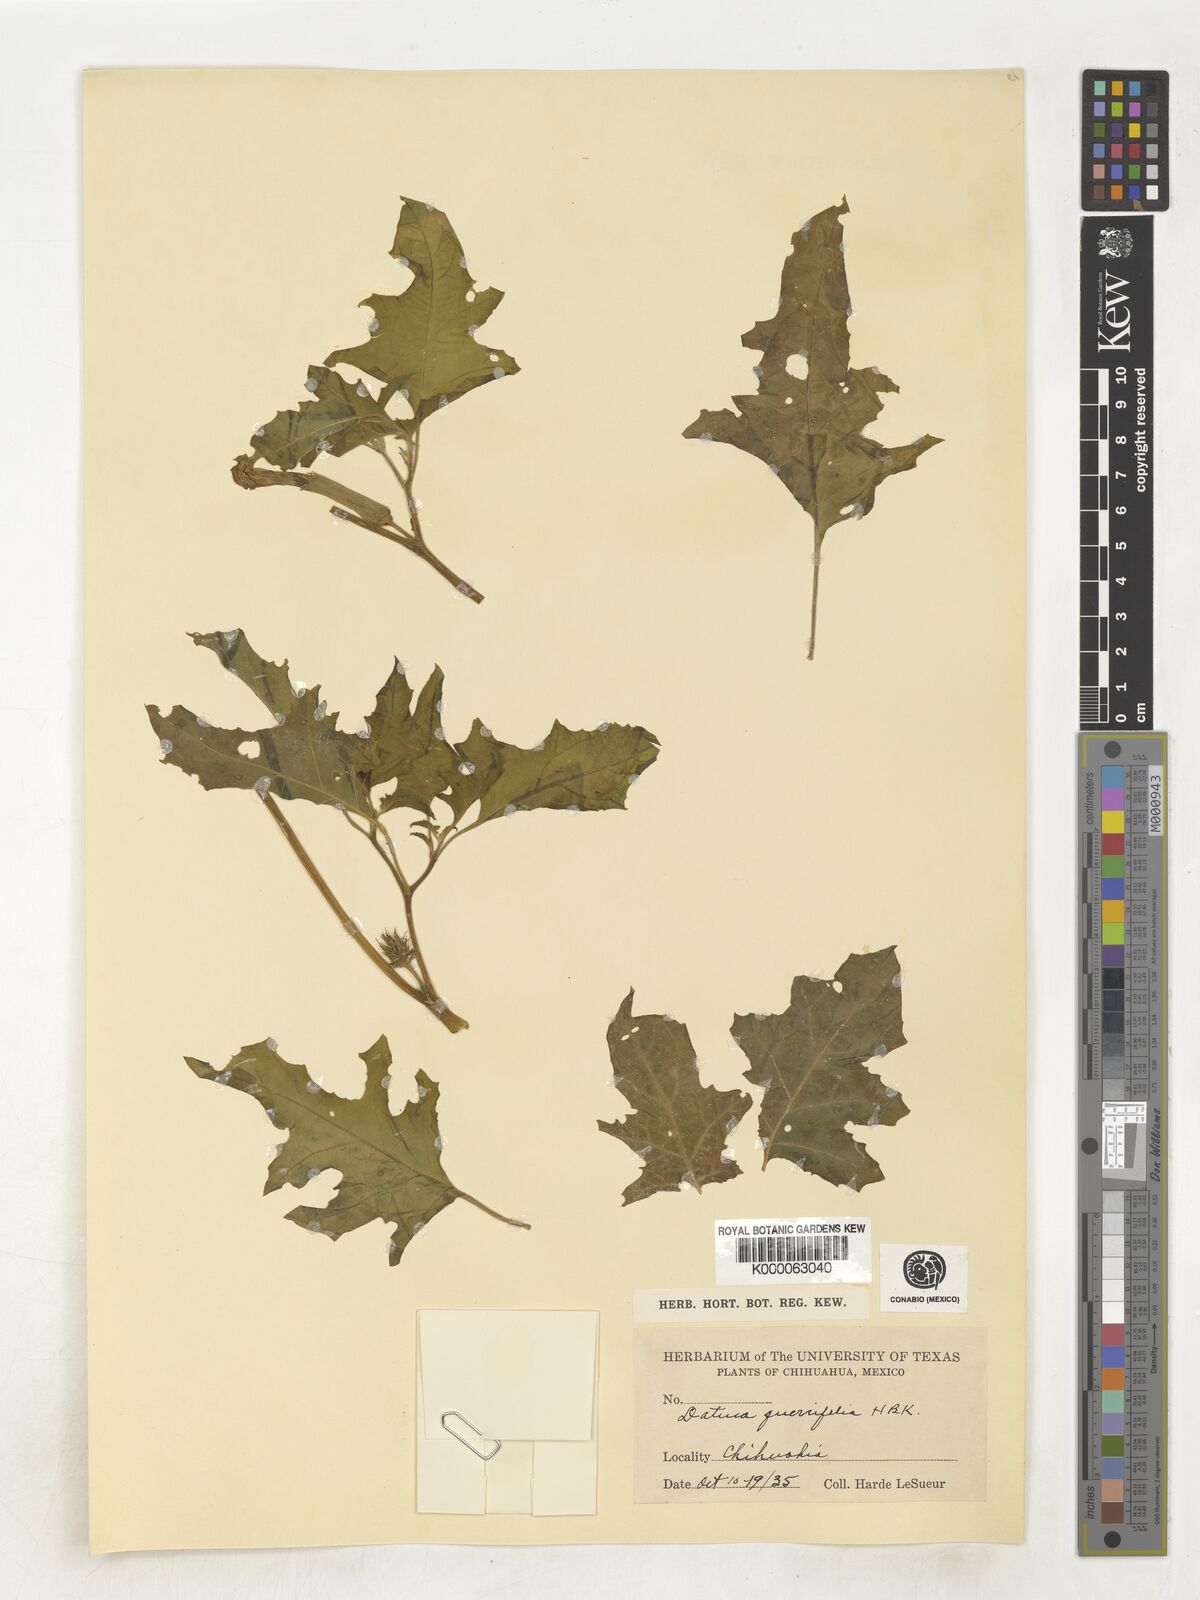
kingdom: Plantae
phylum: Tracheophyta
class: Magnoliopsida
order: Solanales
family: Solanaceae
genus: Datura
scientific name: Datura quercifolia
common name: Oak-leaf datura
